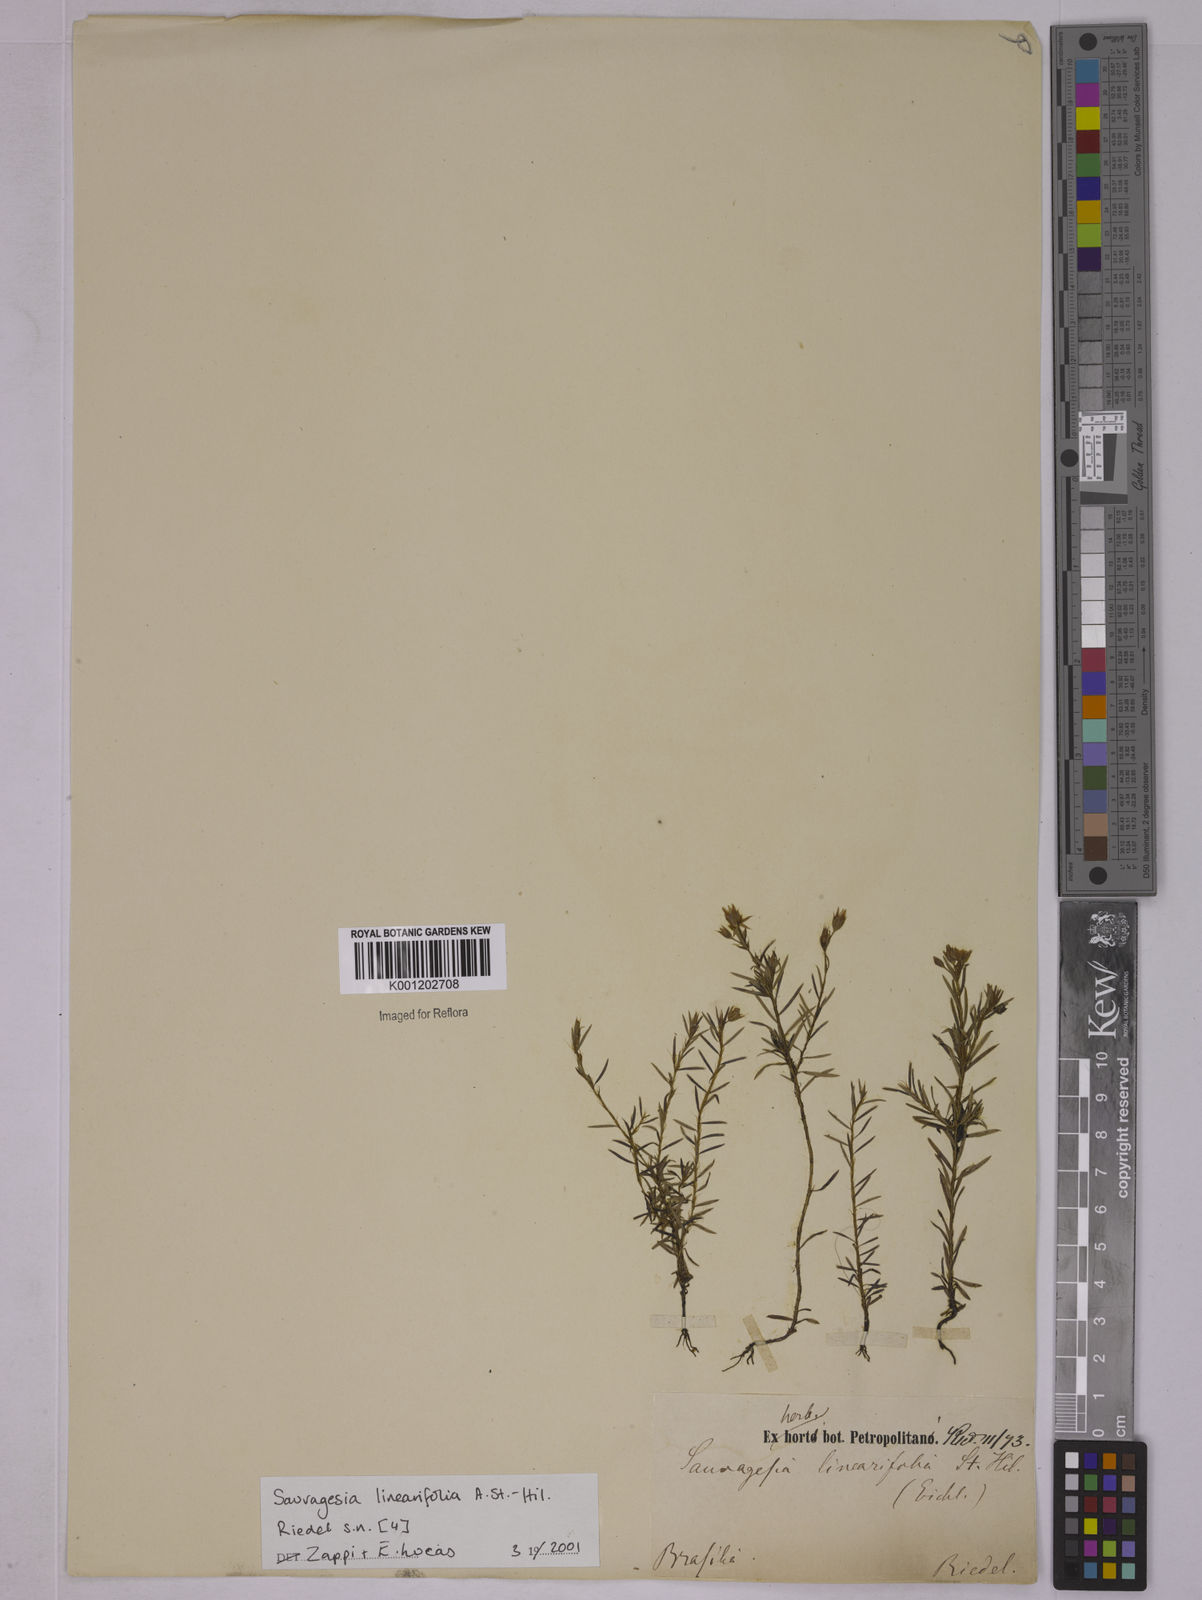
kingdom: Plantae
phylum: Tracheophyta
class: Magnoliopsida
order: Malpighiales
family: Ochnaceae
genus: Sauvagesia
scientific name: Sauvagesia linearifolia
